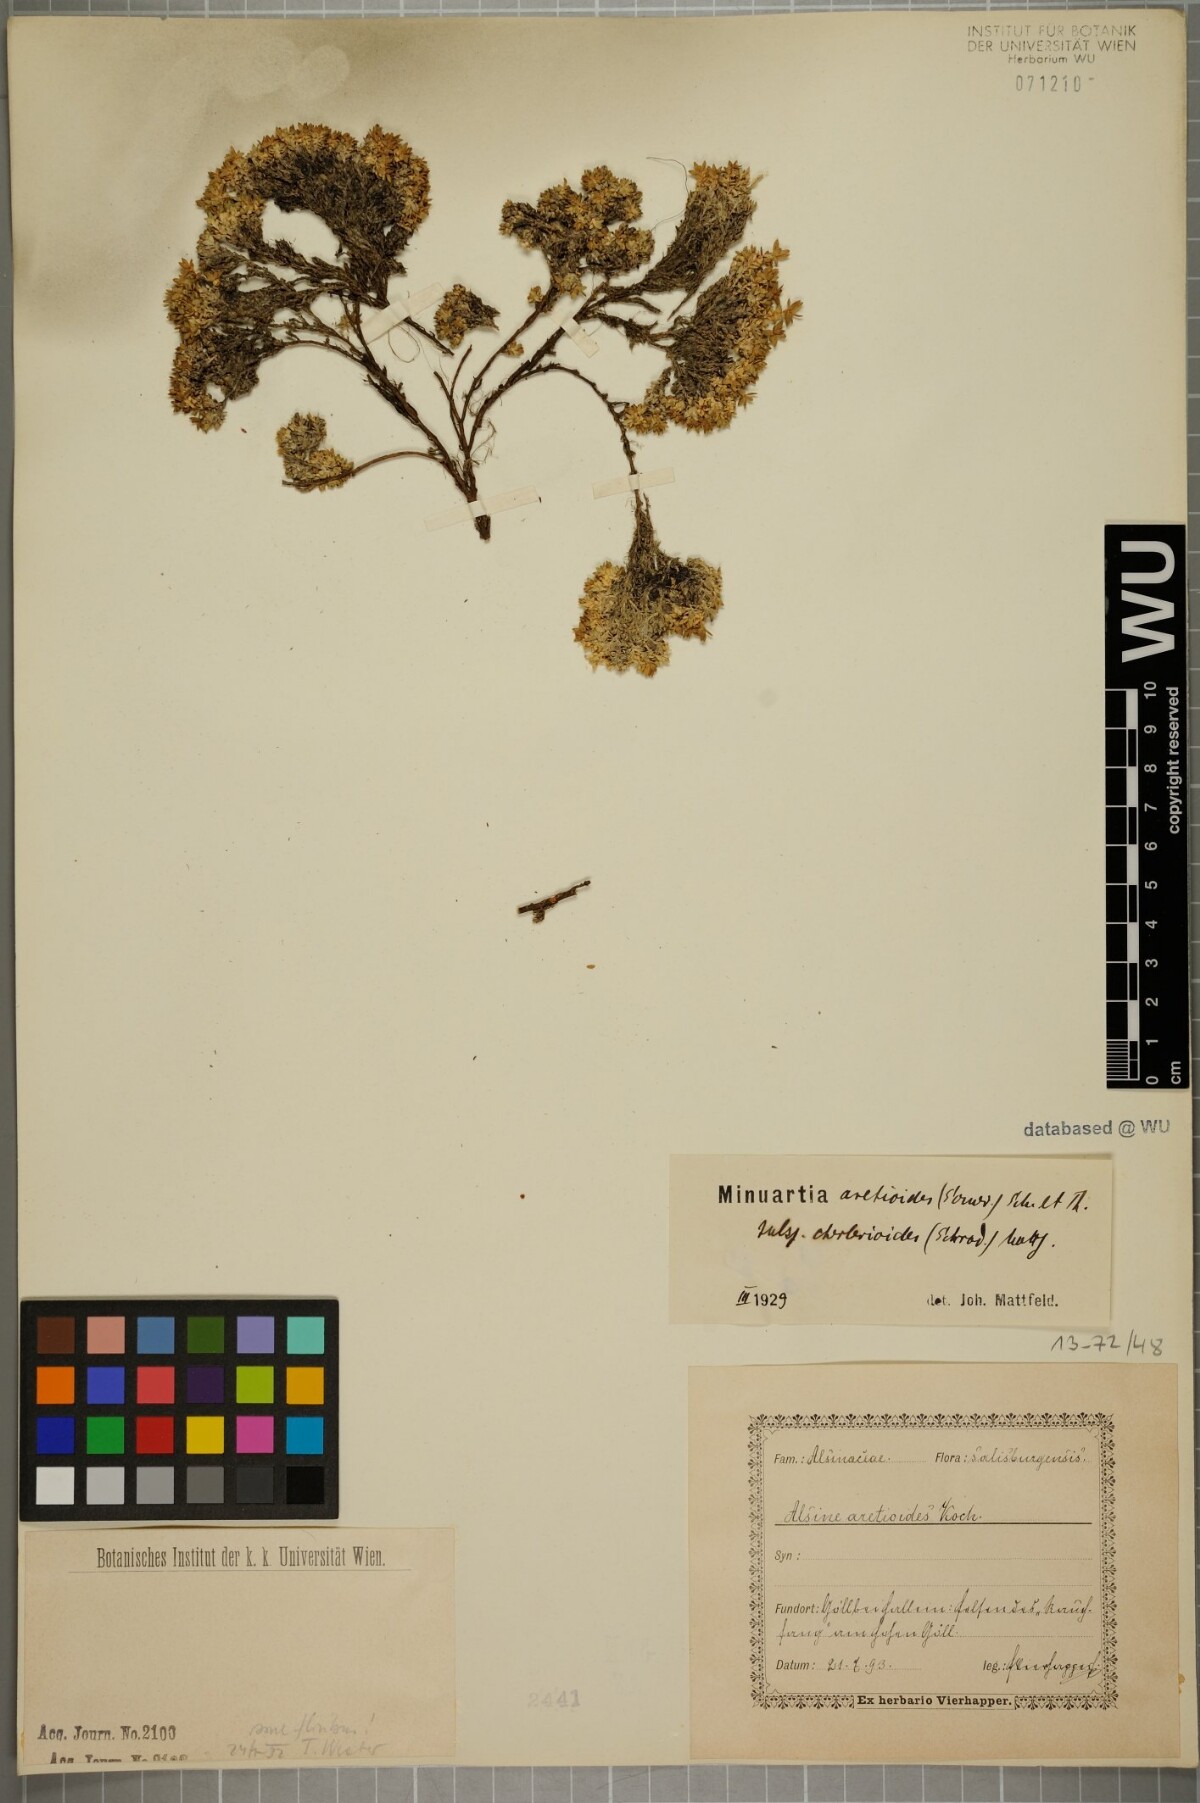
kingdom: Plantae
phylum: Tracheophyta
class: Magnoliopsida
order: Caryophyllales
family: Caryophyllaceae
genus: Facchinia
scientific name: Facchinia cherlerioides
